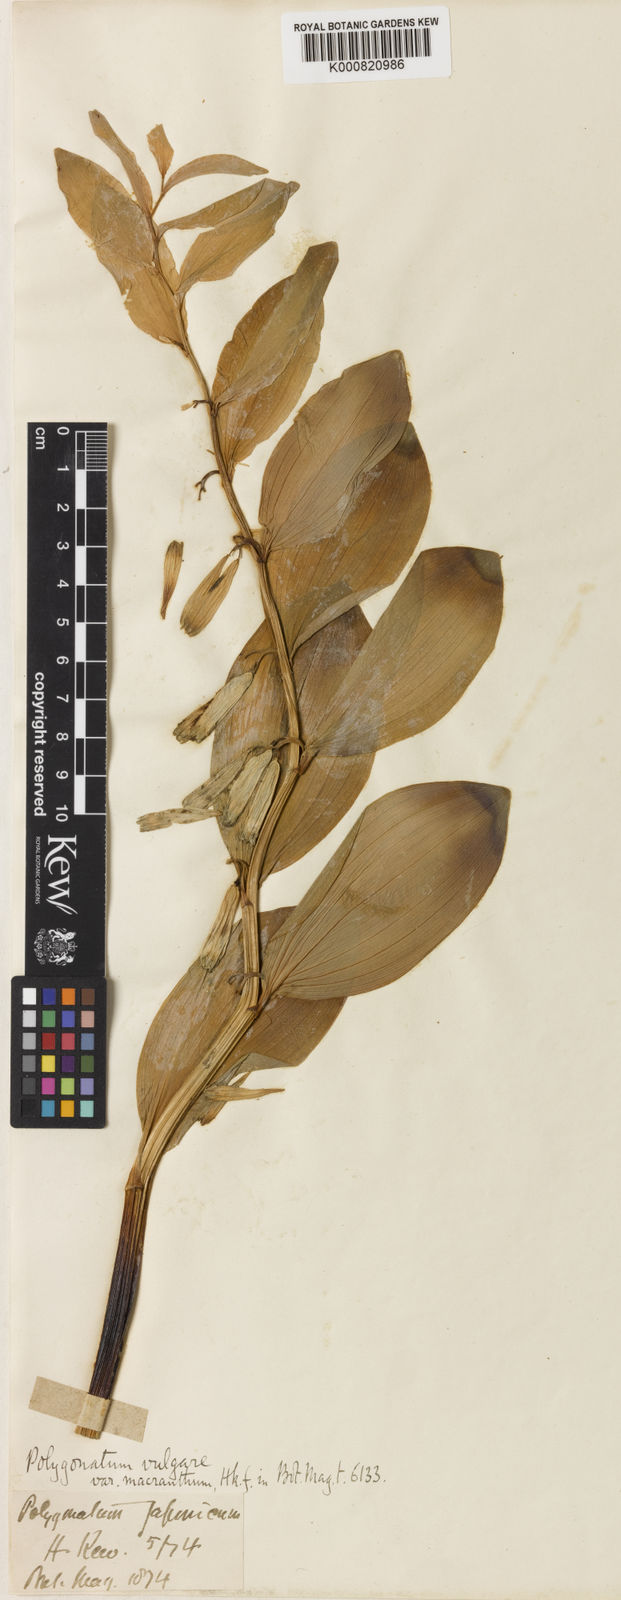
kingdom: Plantae
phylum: Tracheophyta
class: Liliopsida
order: Asparagales
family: Asparagaceae
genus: Polygonatum
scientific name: Polygonatum odoratum
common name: Angular solomon's-seal
